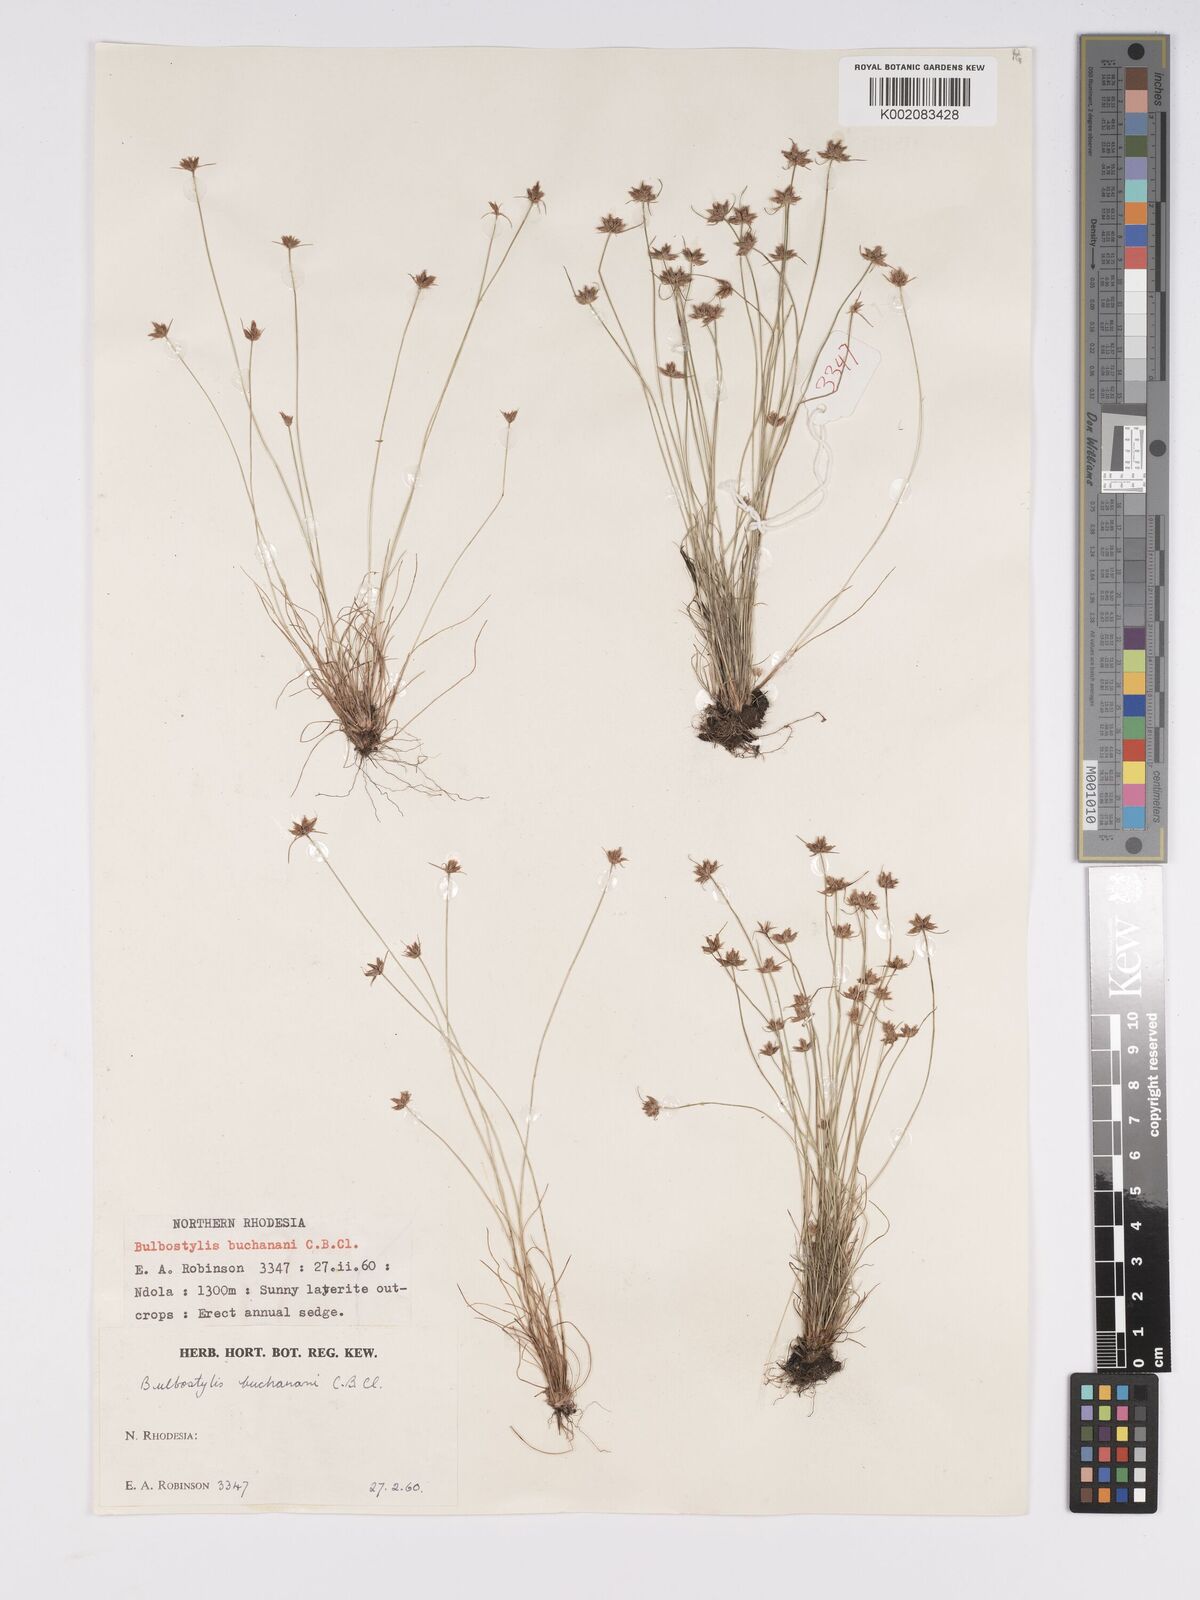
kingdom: Plantae
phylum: Tracheophyta
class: Liliopsida
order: Poales
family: Cyperaceae
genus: Bulbostylis
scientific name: Bulbostylis buchananii
